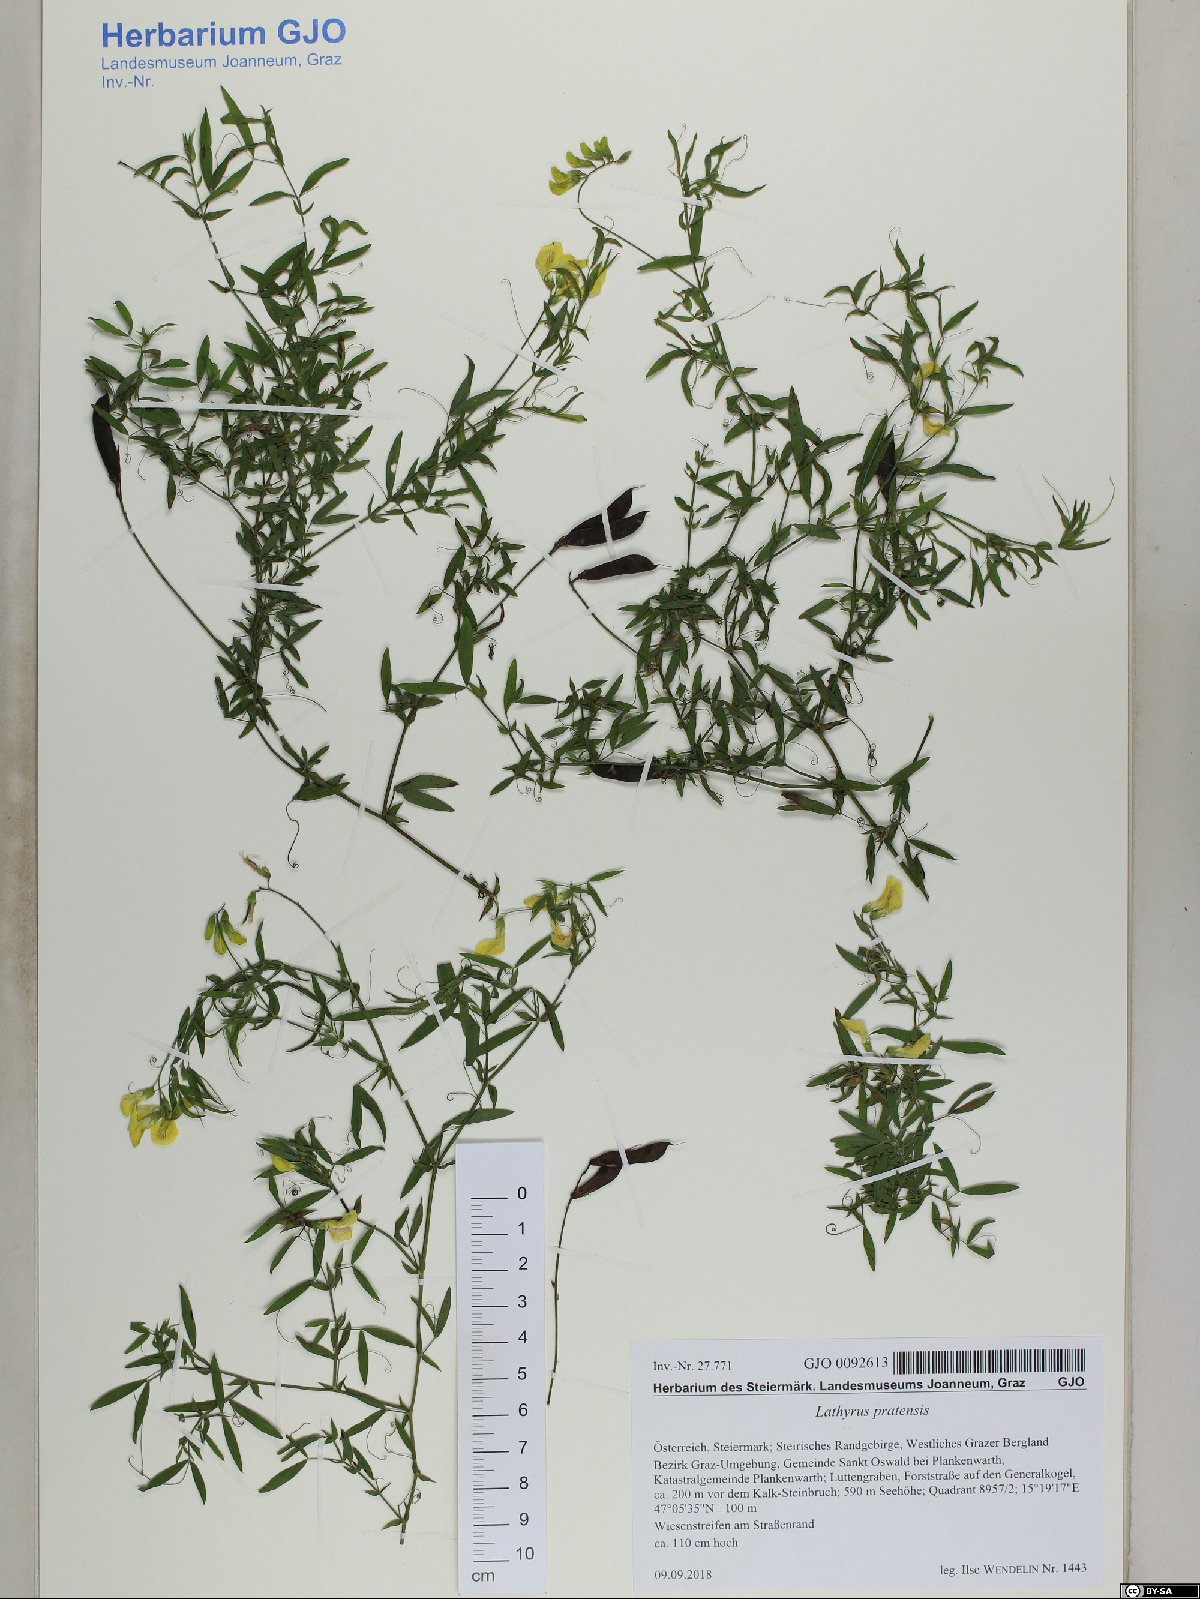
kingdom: Plantae
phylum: Tracheophyta
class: Magnoliopsida
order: Fabales
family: Fabaceae
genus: Lathyrus
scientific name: Lathyrus pratensis
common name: Meadow vetchling
